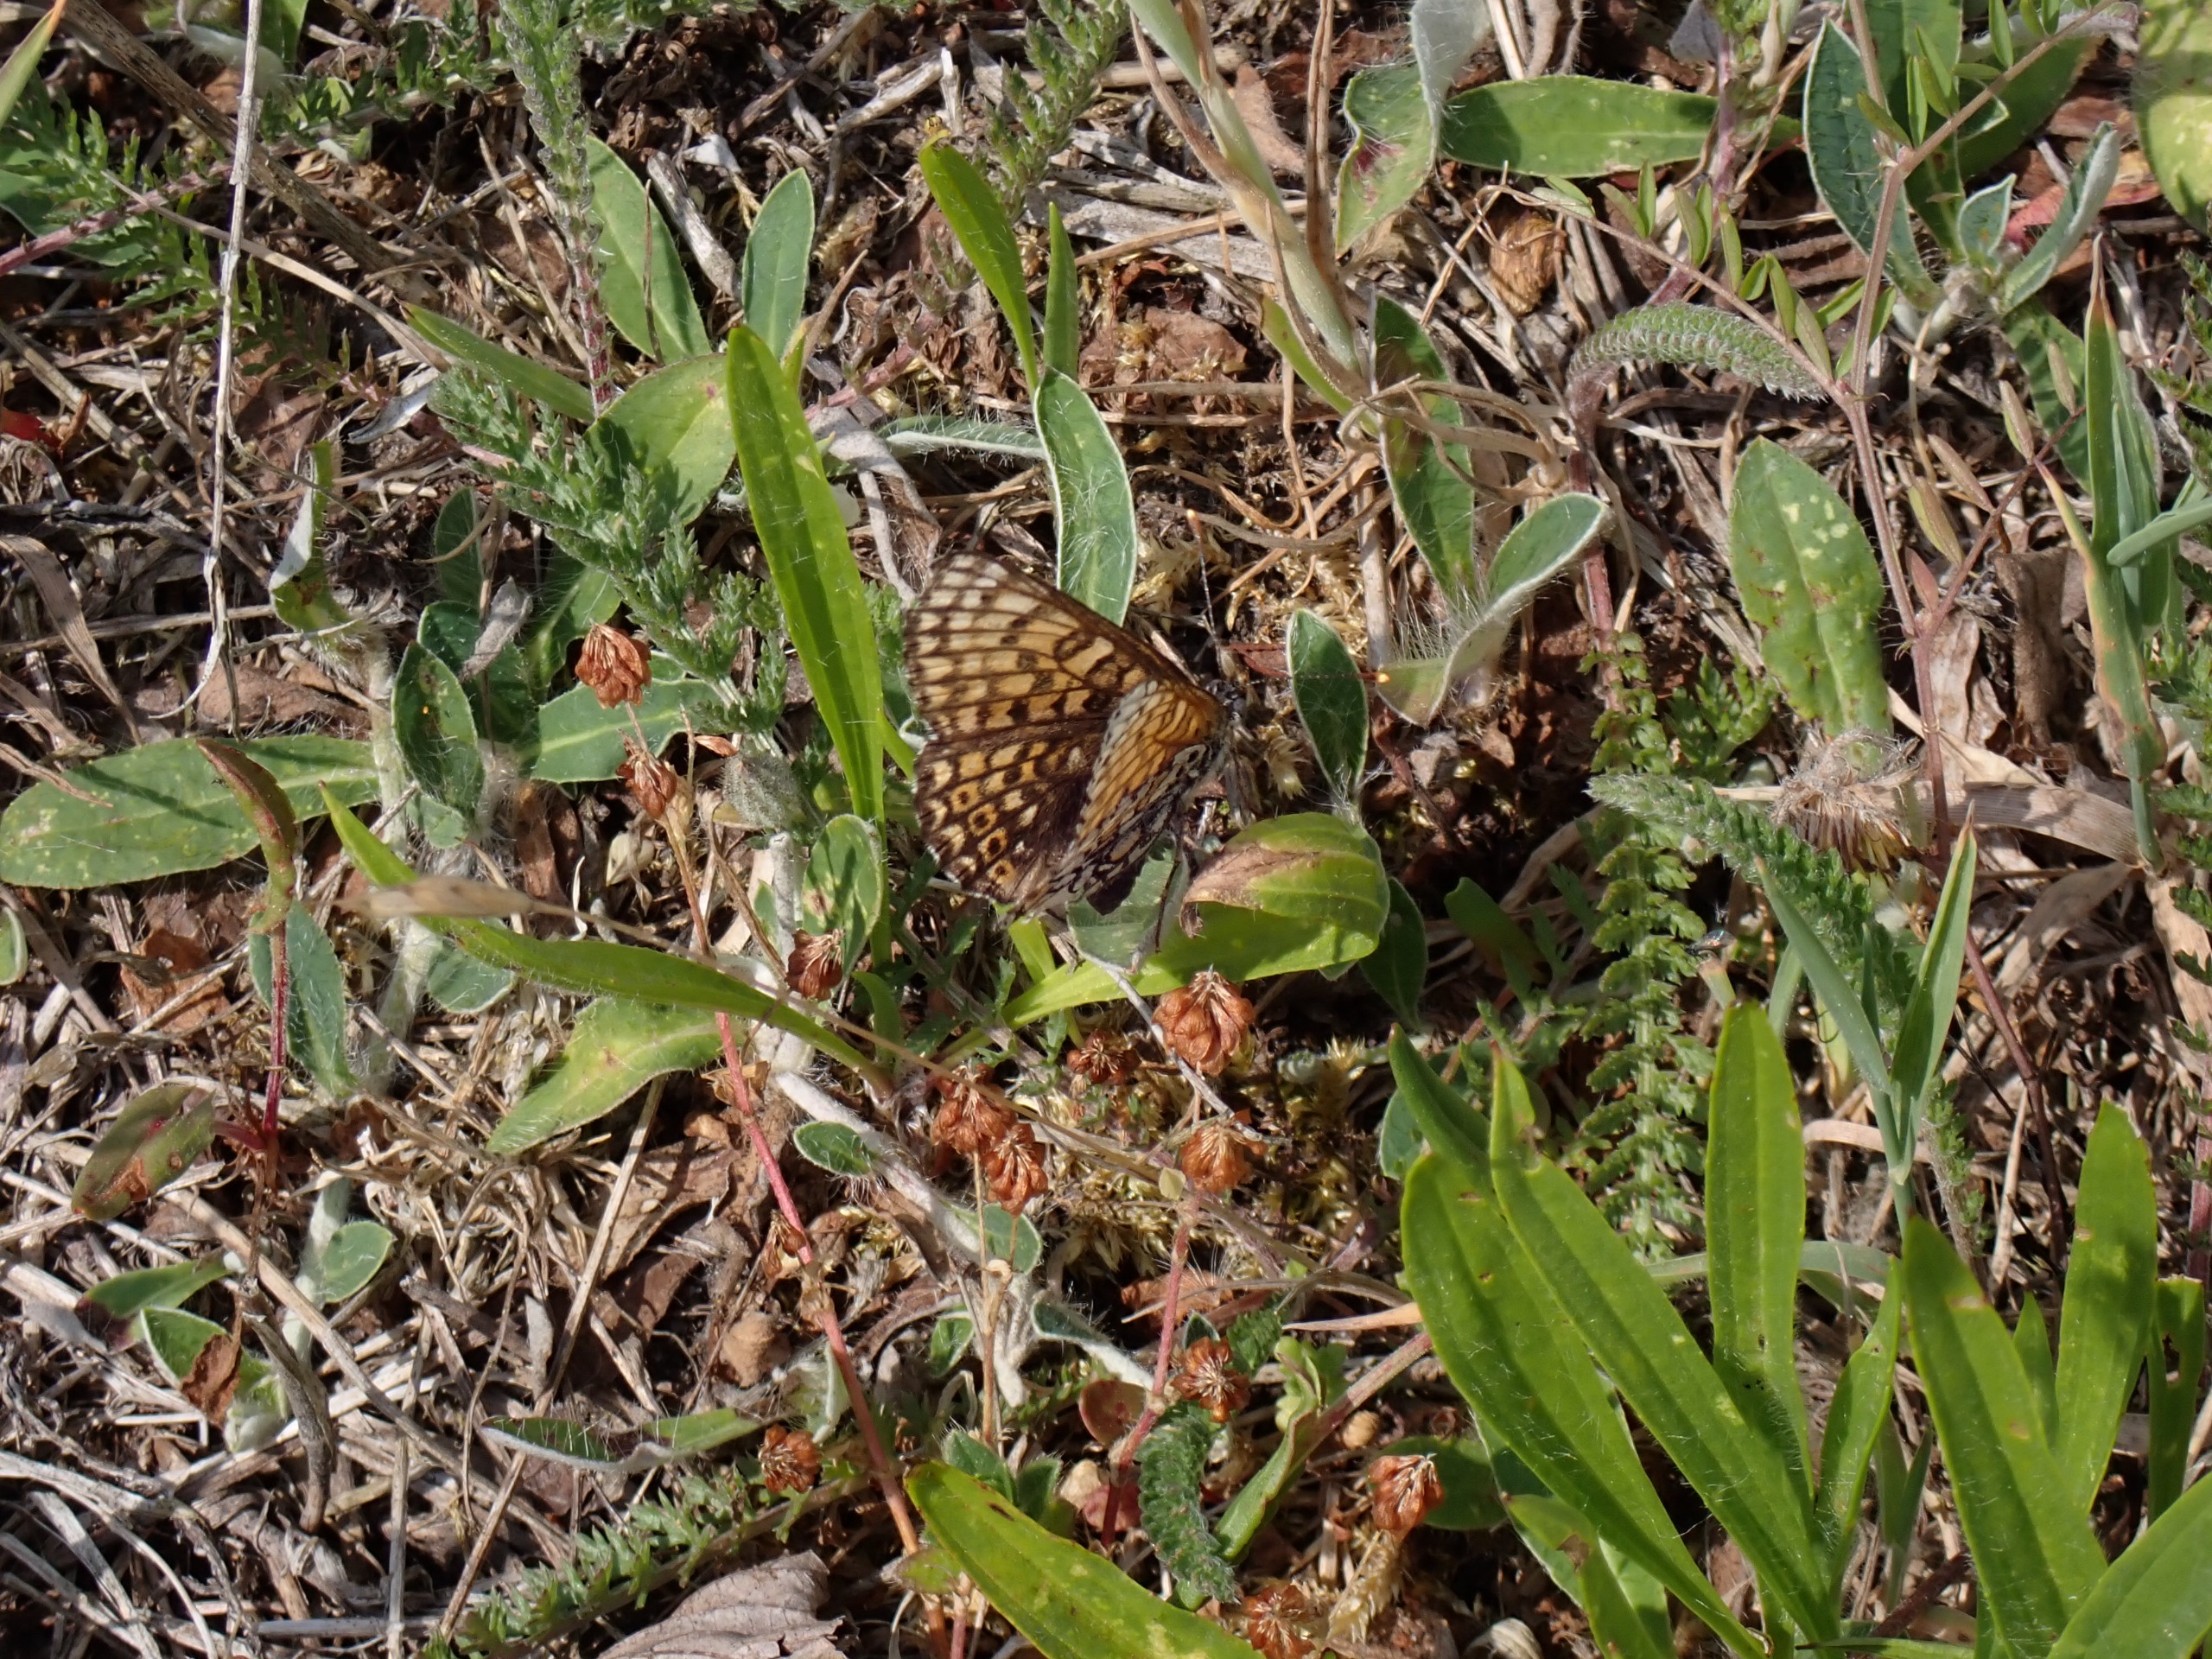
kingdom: Animalia
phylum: Arthropoda
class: Insecta
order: Lepidoptera
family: Nymphalidae
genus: Melitaea
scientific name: Melitaea cinxia
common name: Okkergul pletvinge
